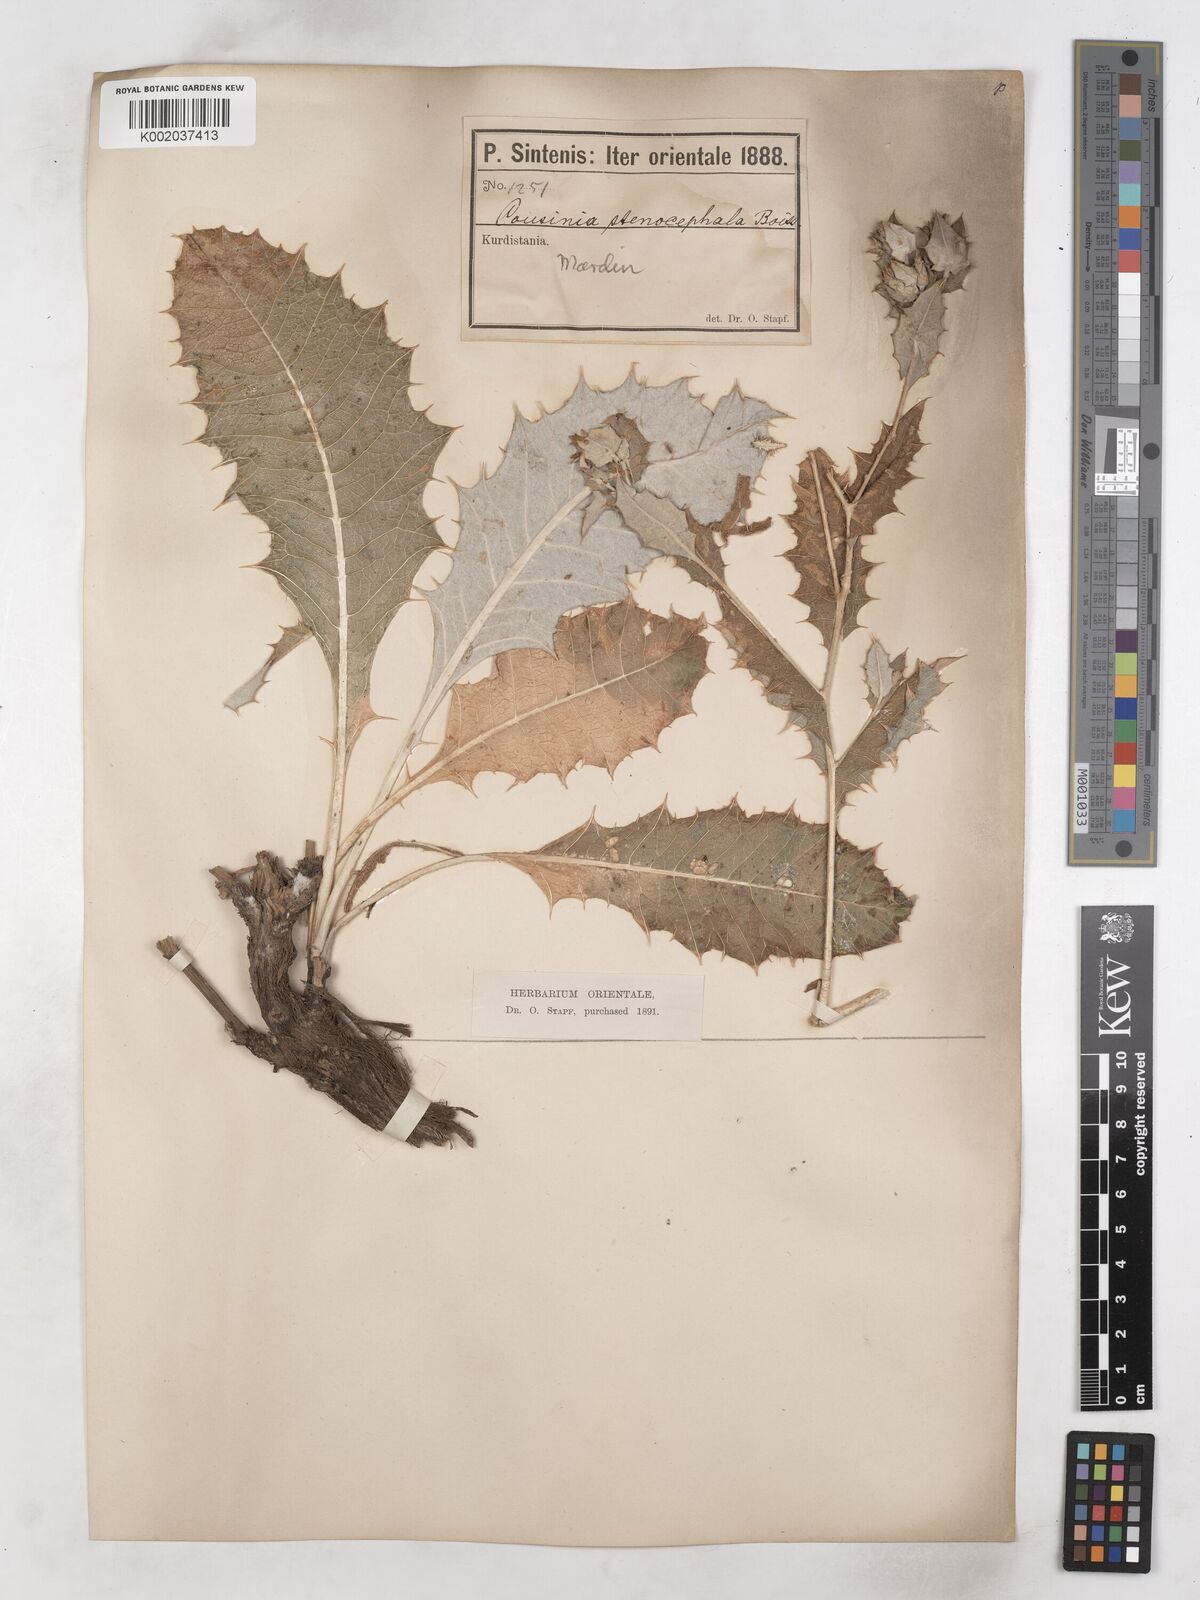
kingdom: Plantae
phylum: Tracheophyta
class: Magnoliopsida
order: Asterales
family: Asteraceae
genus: Cousinia
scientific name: Cousinia stenocephala
